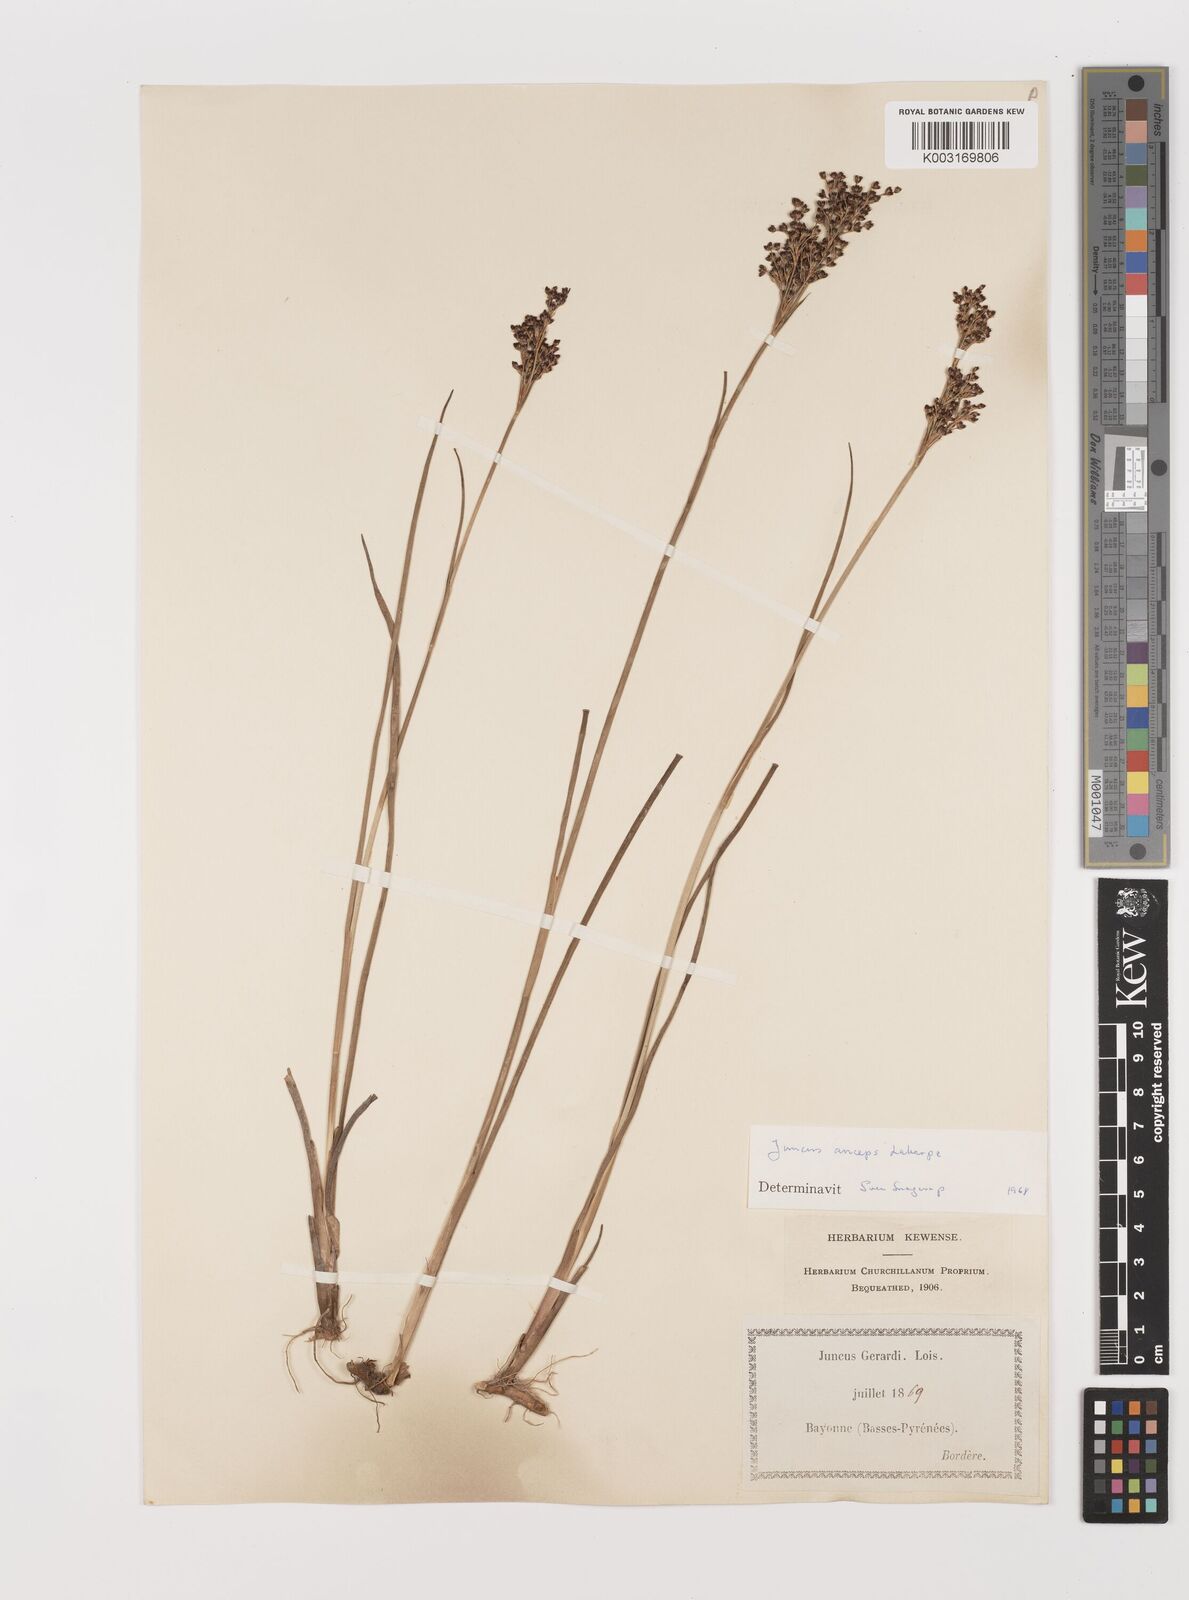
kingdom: Plantae
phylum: Tracheophyta
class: Liliopsida
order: Poales
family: Juncaceae
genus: Juncus
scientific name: Juncus anceps
